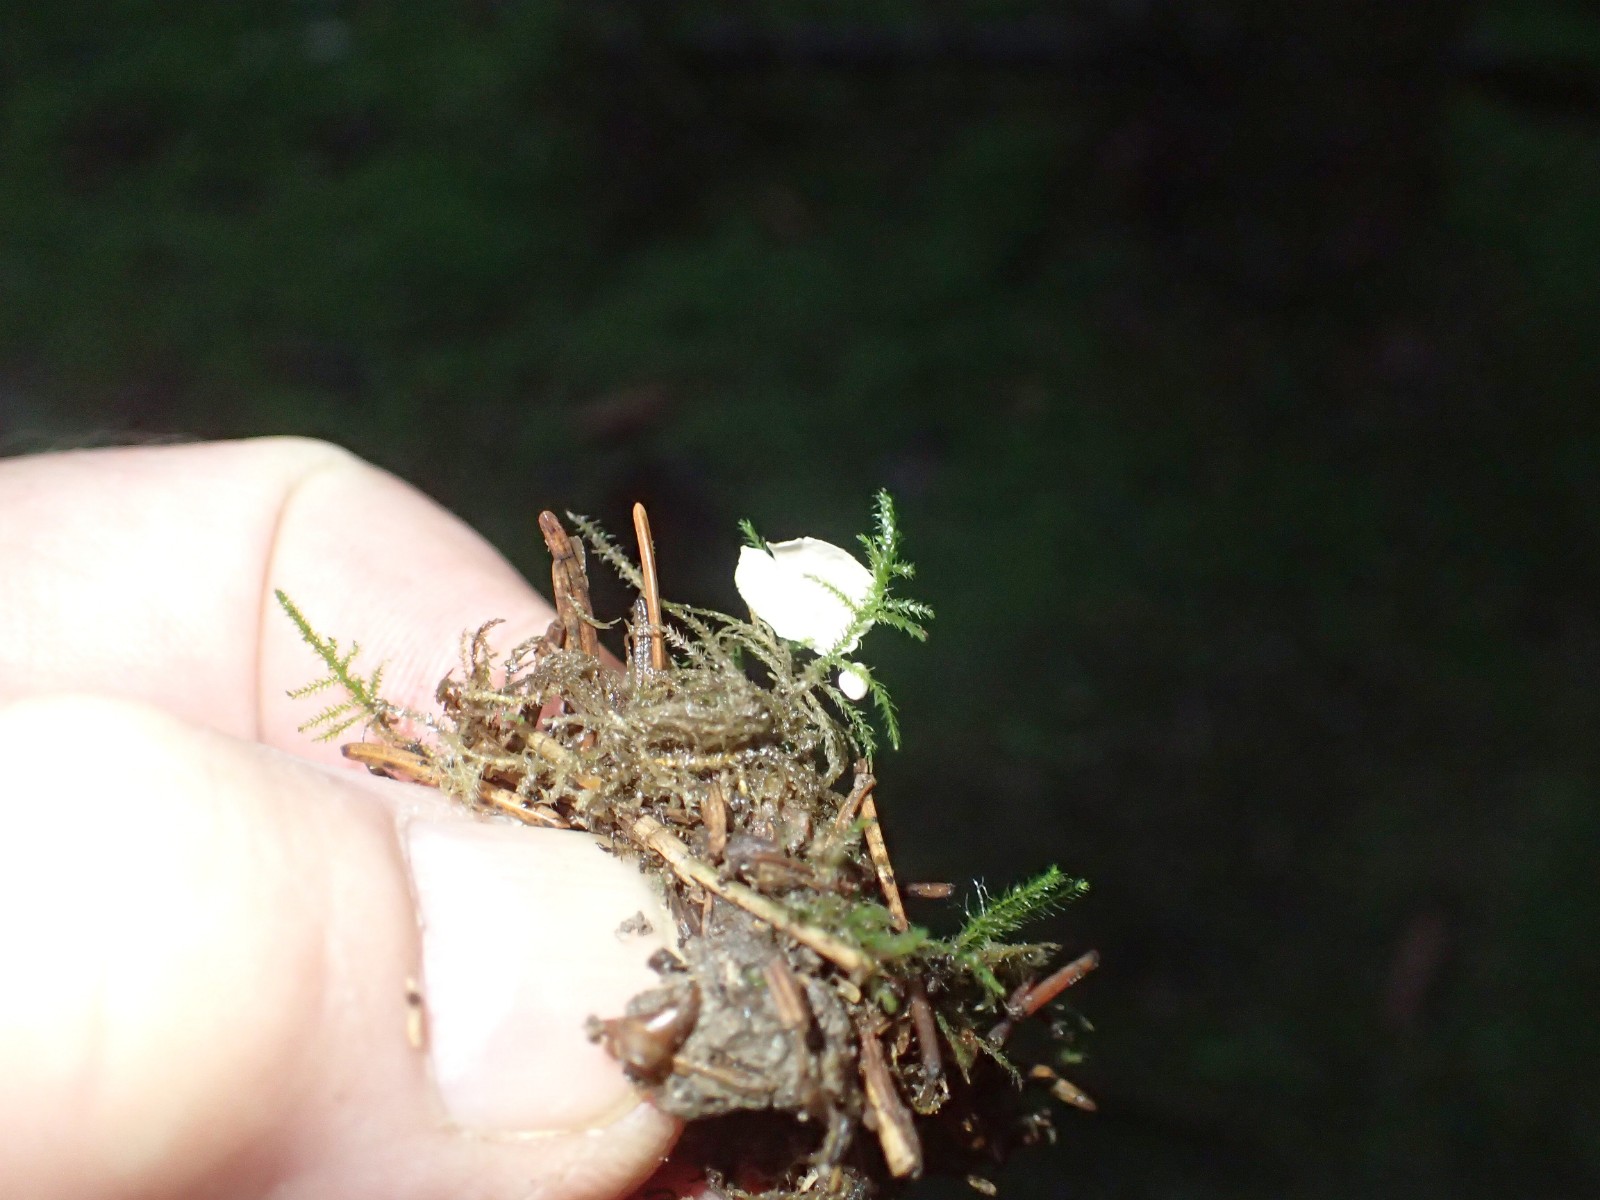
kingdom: Fungi
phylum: Basidiomycota
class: Agaricomycetes
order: Agaricales
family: Hygrophoraceae
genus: Arrhenia
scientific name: Arrhenia retiruga
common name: lille fontænehat
